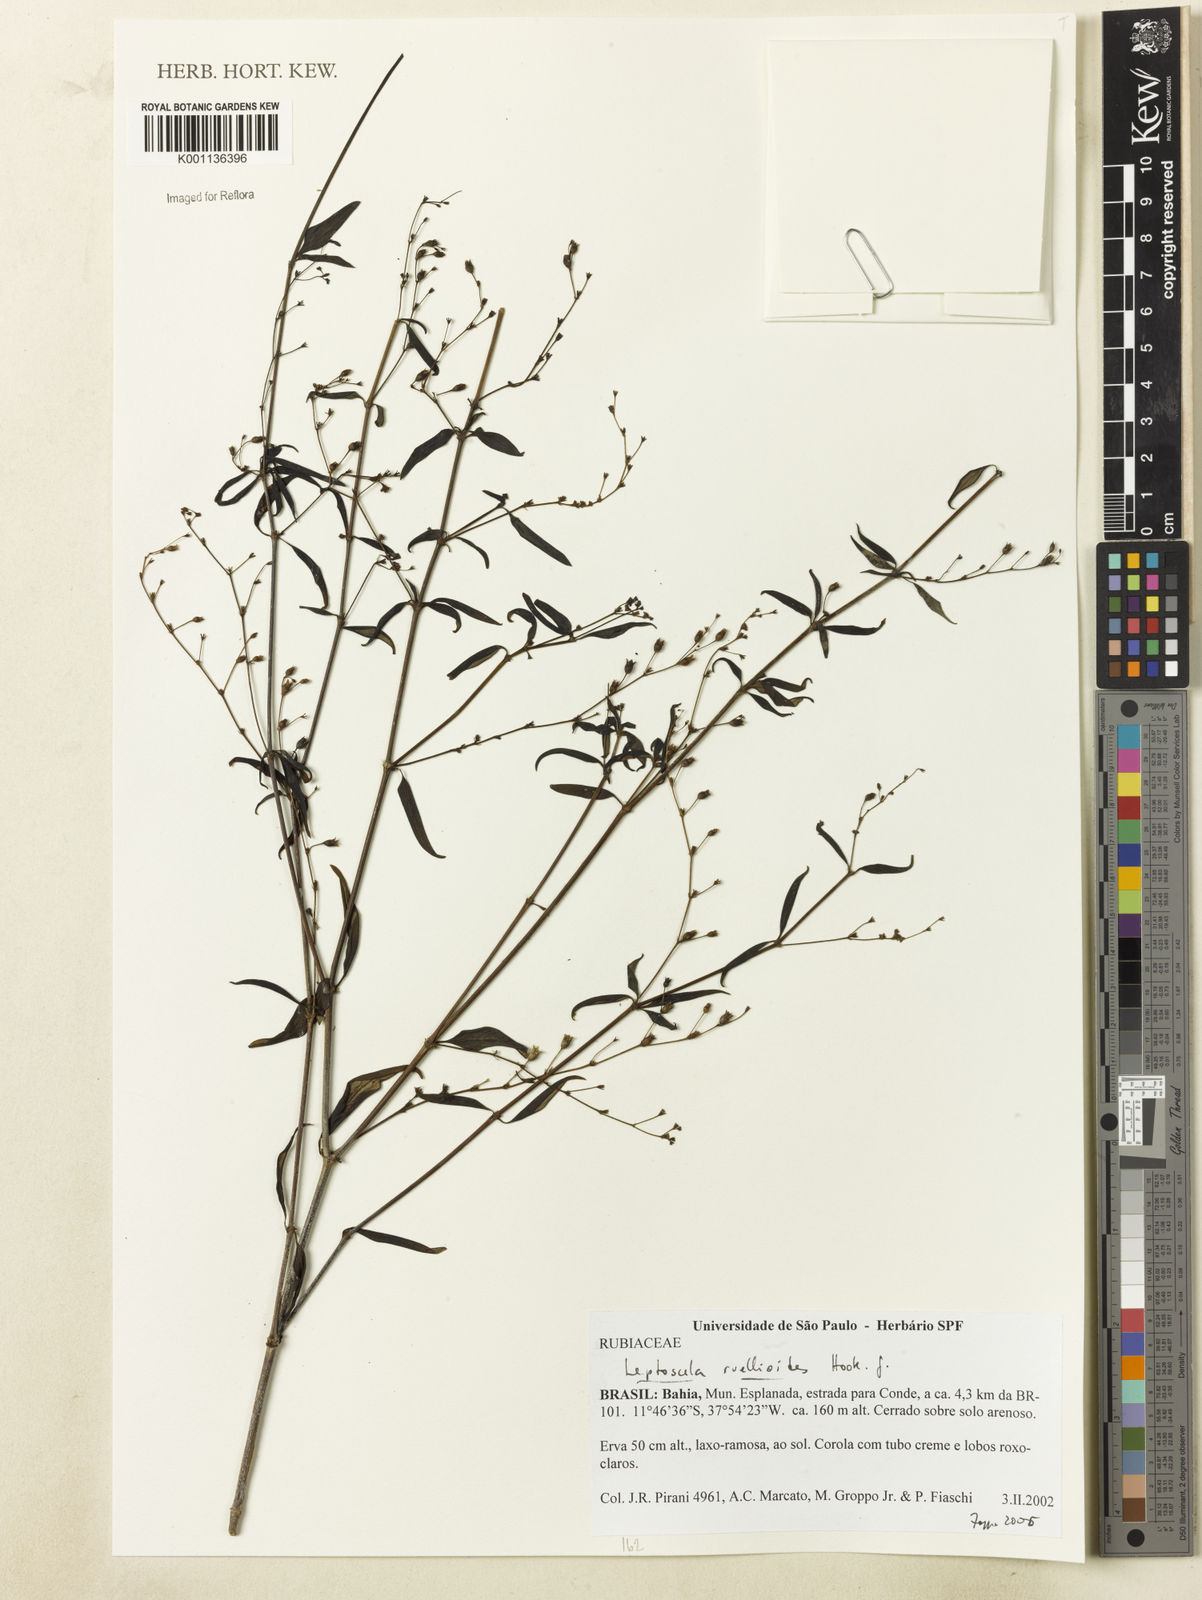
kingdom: Plantae
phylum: Tracheophyta
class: Magnoliopsida
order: Gentianales
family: Rubiaceae
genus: Leptoscela
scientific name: Leptoscela ruellioides
